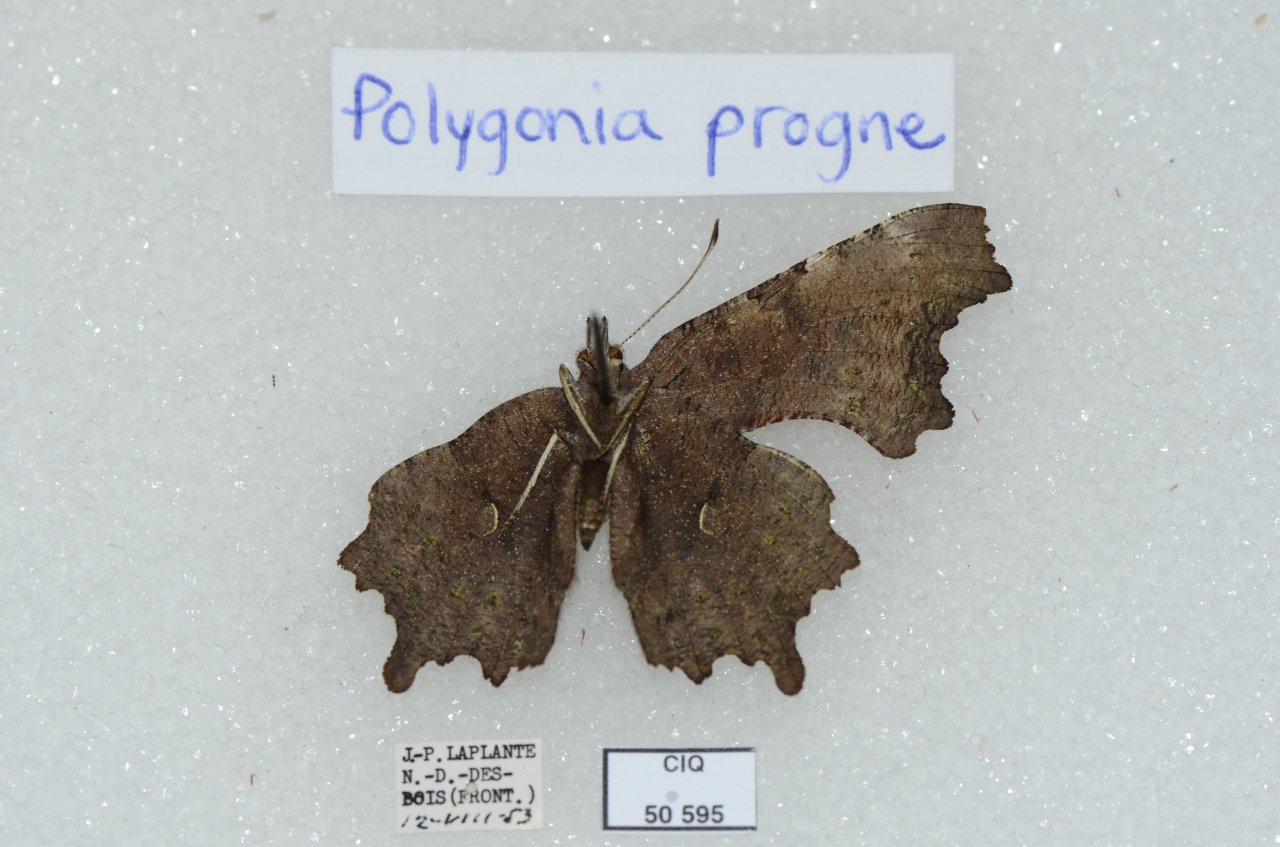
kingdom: Animalia
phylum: Arthropoda
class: Insecta
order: Lepidoptera
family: Nymphalidae
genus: Polygonia
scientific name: Polygonia progne
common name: Gray Comma
